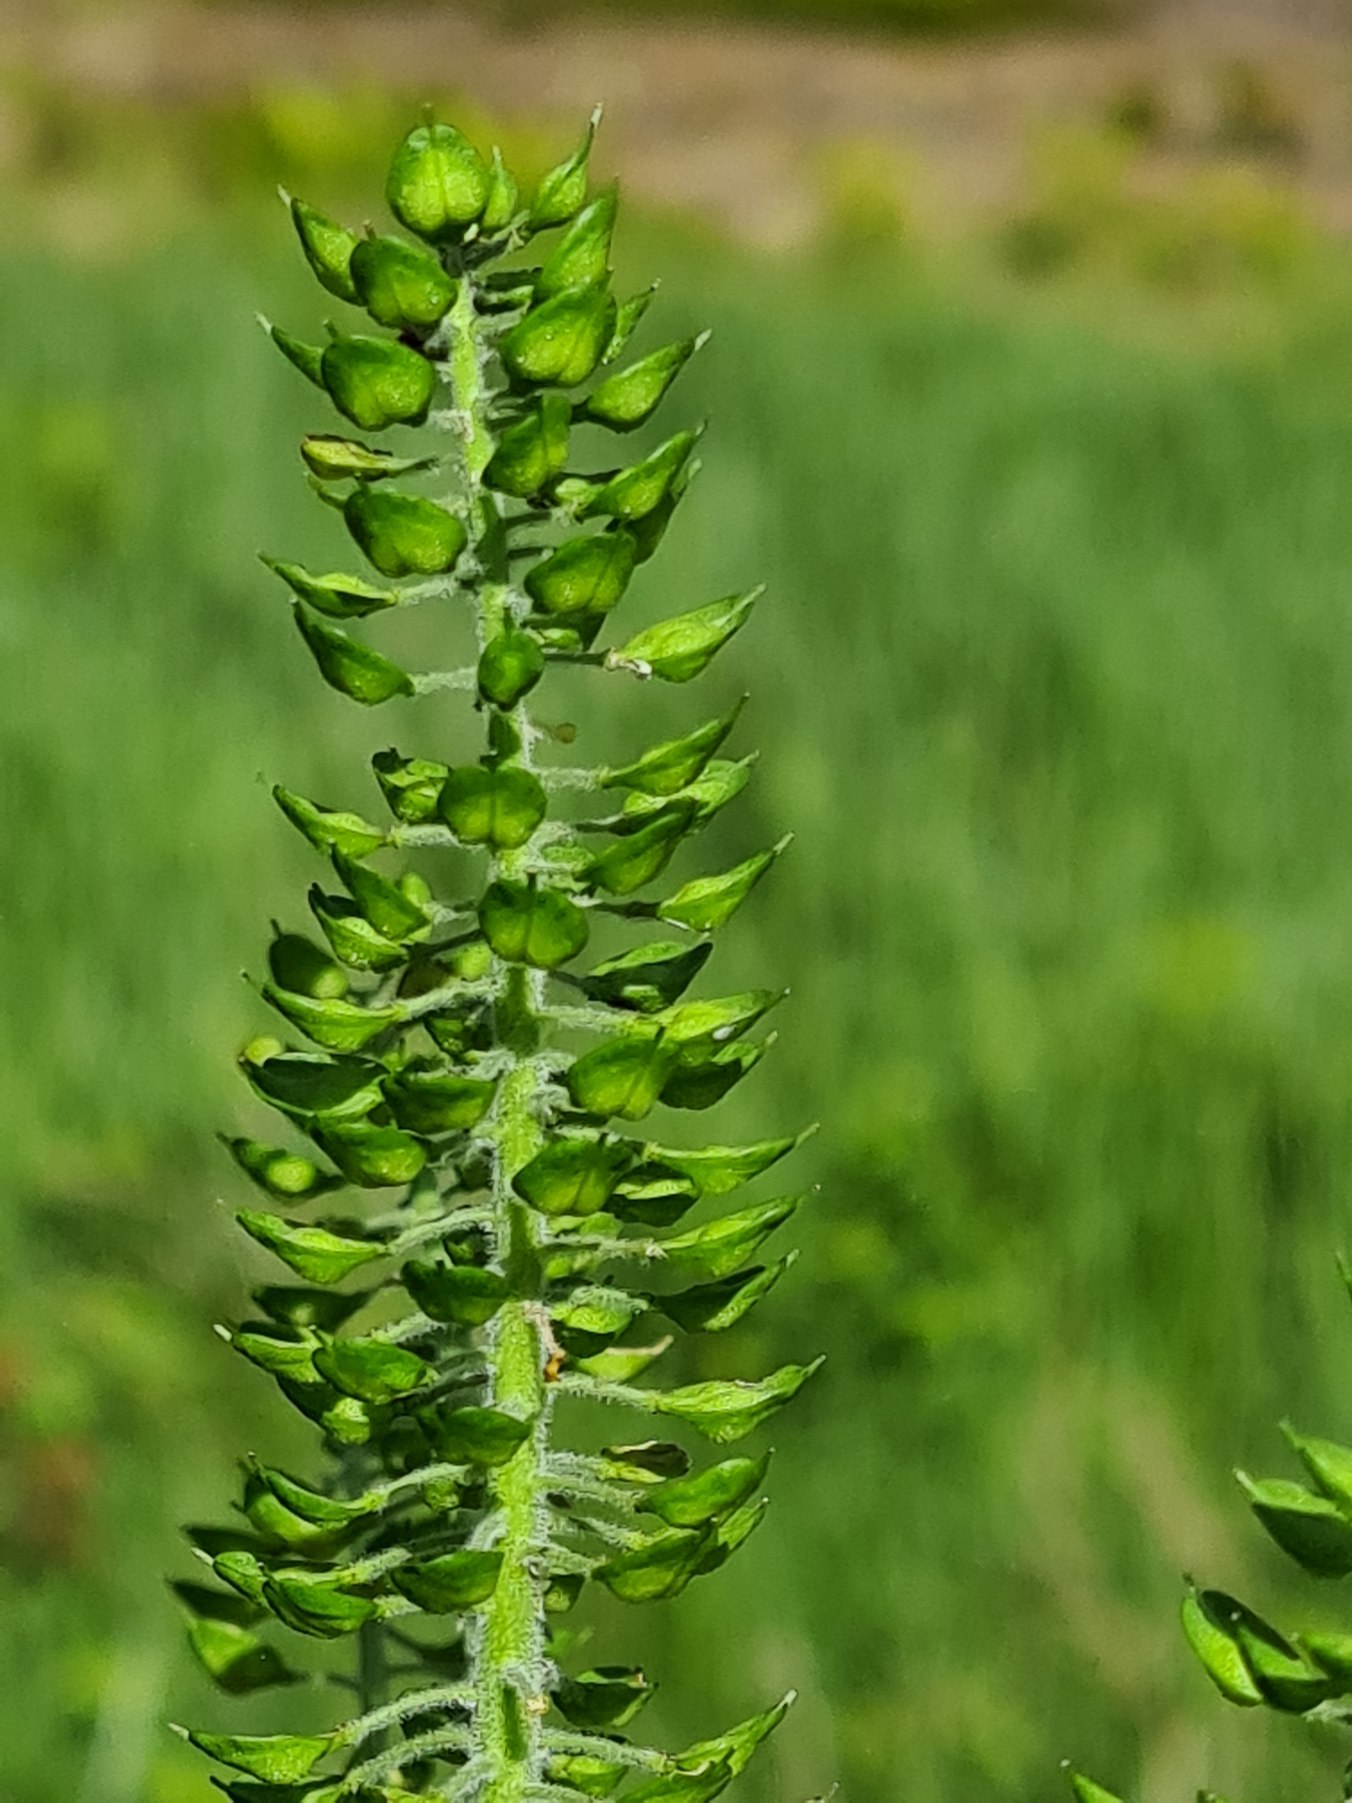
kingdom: Plantae
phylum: Tracheophyta
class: Magnoliopsida
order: Brassicales
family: Brassicaceae
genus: Lepidium
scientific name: Lepidium campestre
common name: Salomons lysestage
